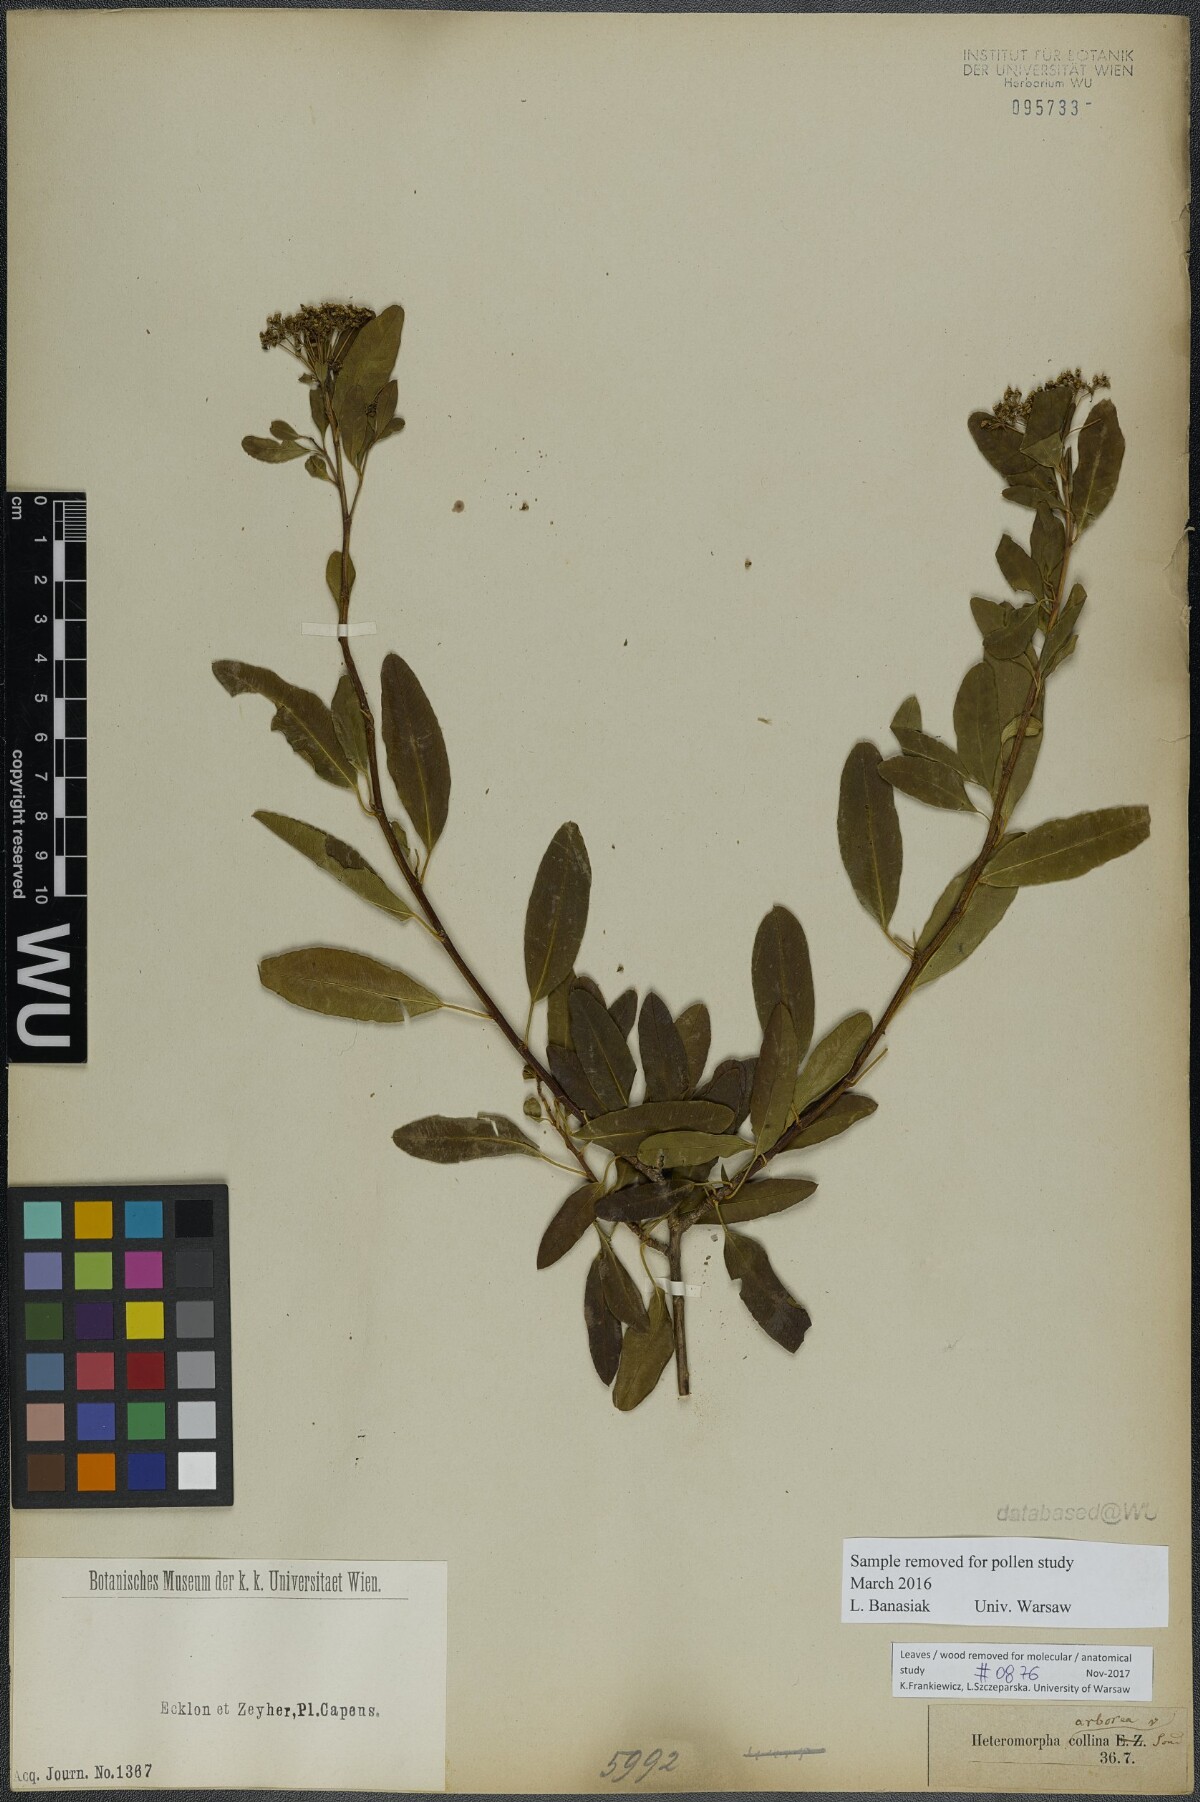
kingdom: Plantae
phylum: Tracheophyta
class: Magnoliopsida
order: Apiales
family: Apiaceae
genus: Heteromorpha
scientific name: Heteromorpha arborescens
